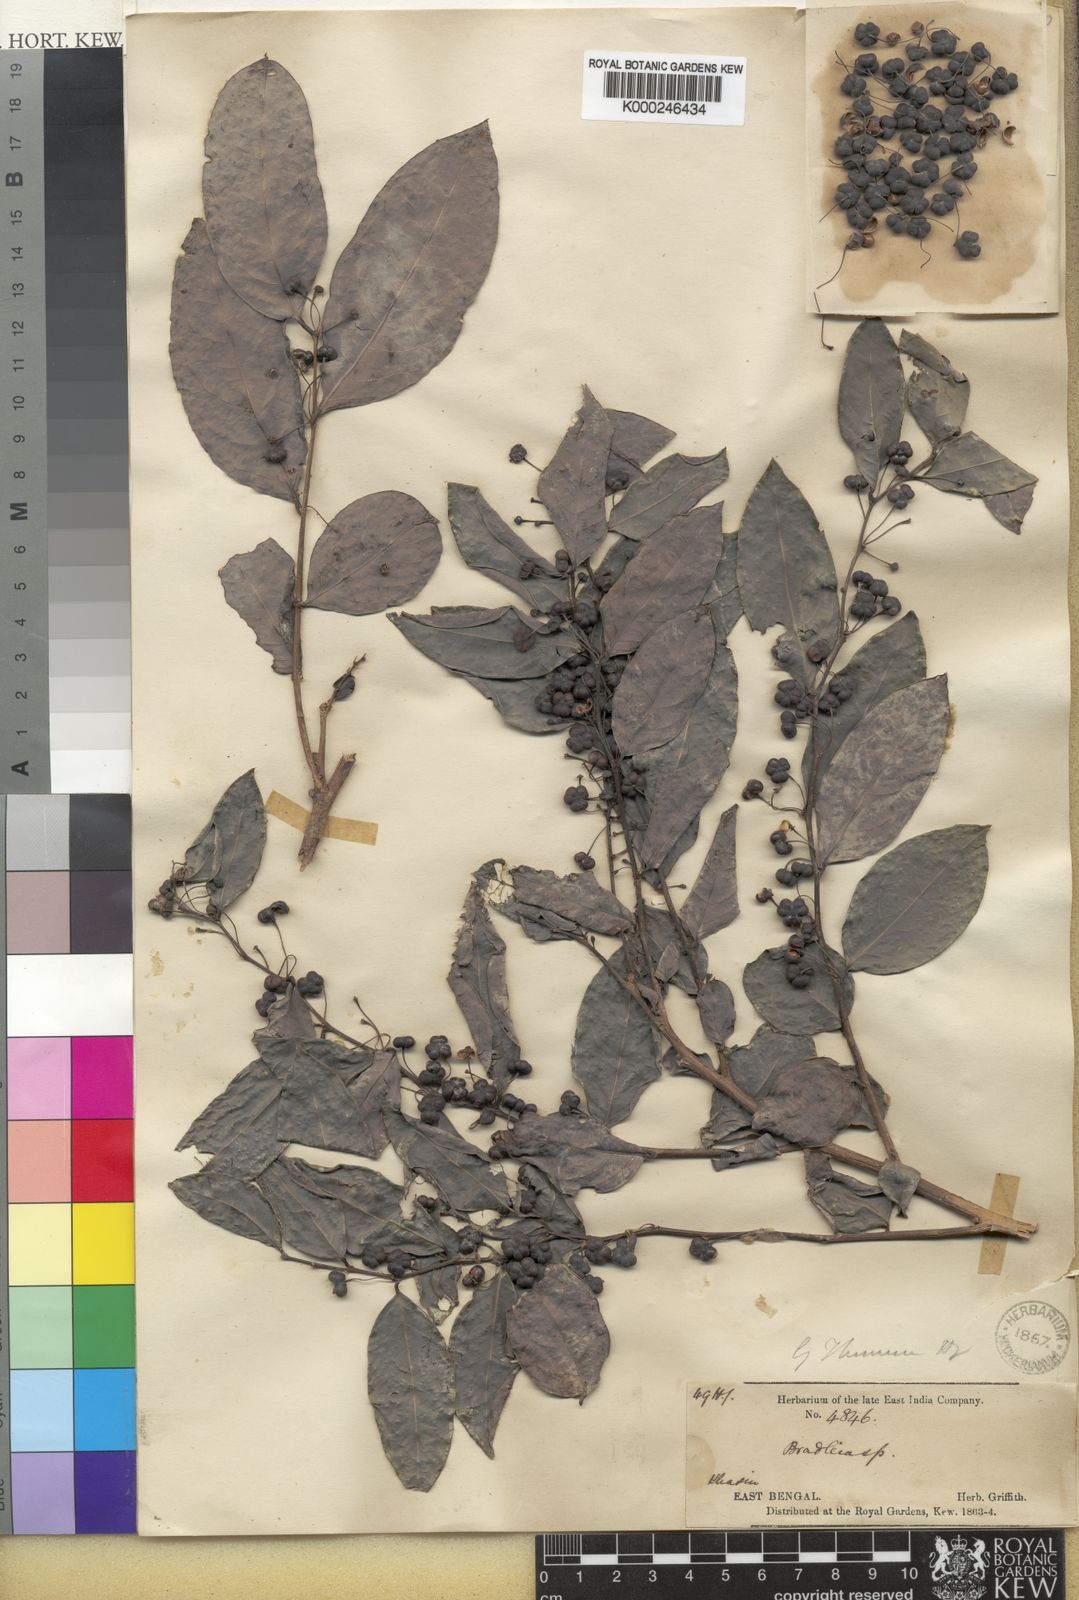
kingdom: Plantae
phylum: Tracheophyta
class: Magnoliopsida
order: Malpighiales
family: Phyllanthaceae
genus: Glochidion
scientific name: Glochidion
